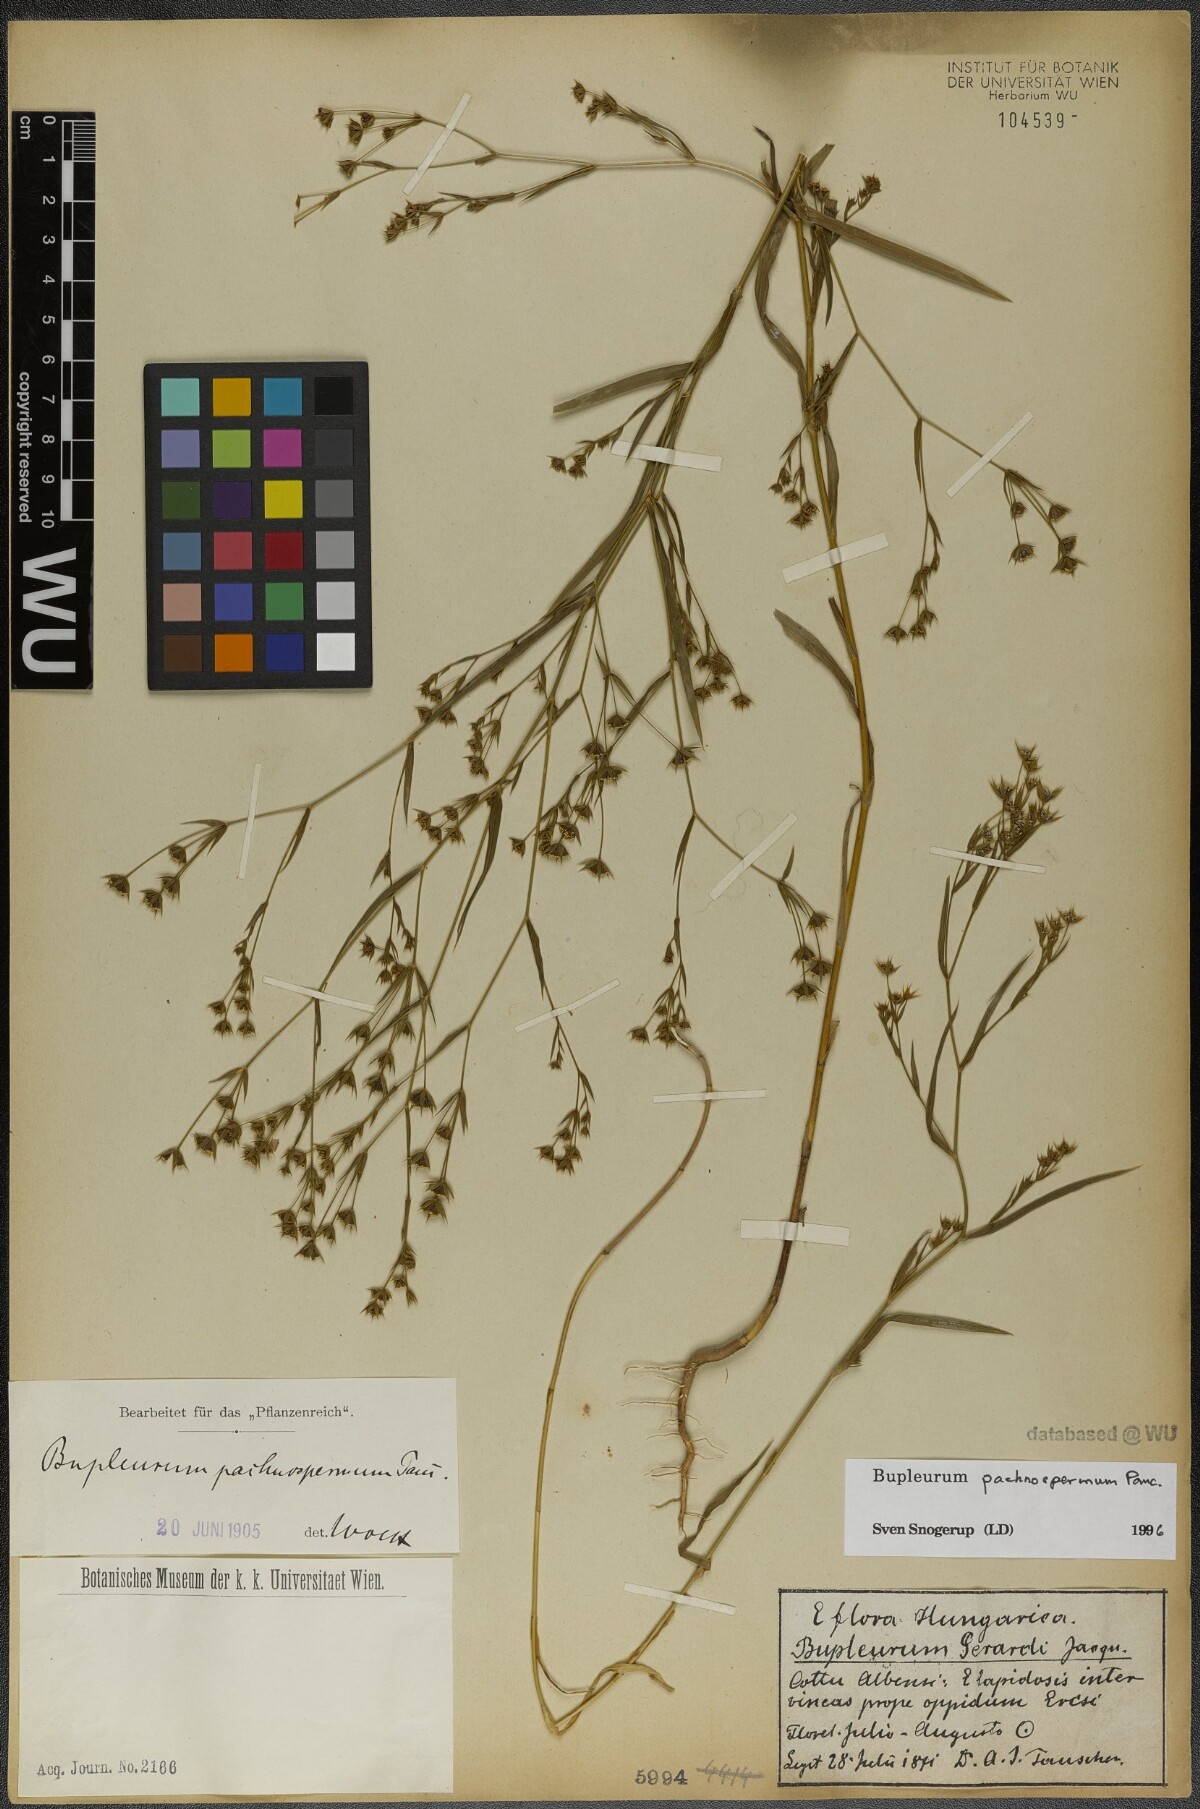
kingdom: Plantae
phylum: Tracheophyta
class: Magnoliopsida
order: Apiales
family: Apiaceae
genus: Bupleurum
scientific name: Bupleurum pachnospermum
